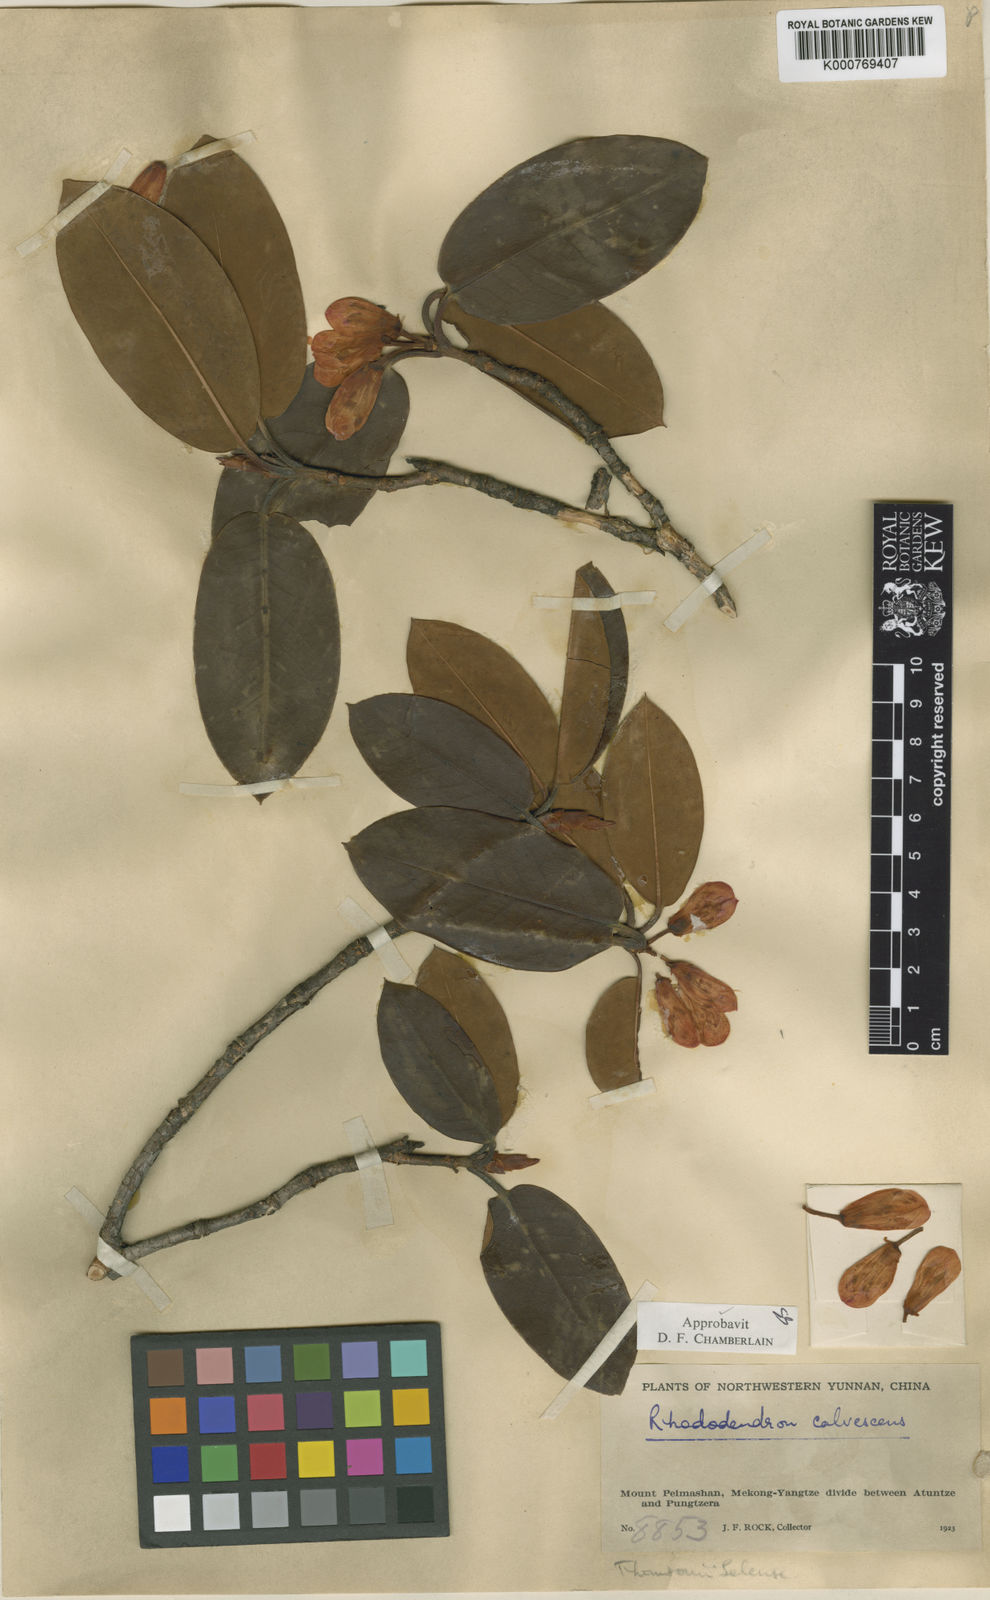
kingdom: Plantae
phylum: Tracheophyta
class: Magnoliopsida
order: Ericales
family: Ericaceae
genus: Rhododendron
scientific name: Rhododendron calvescens
